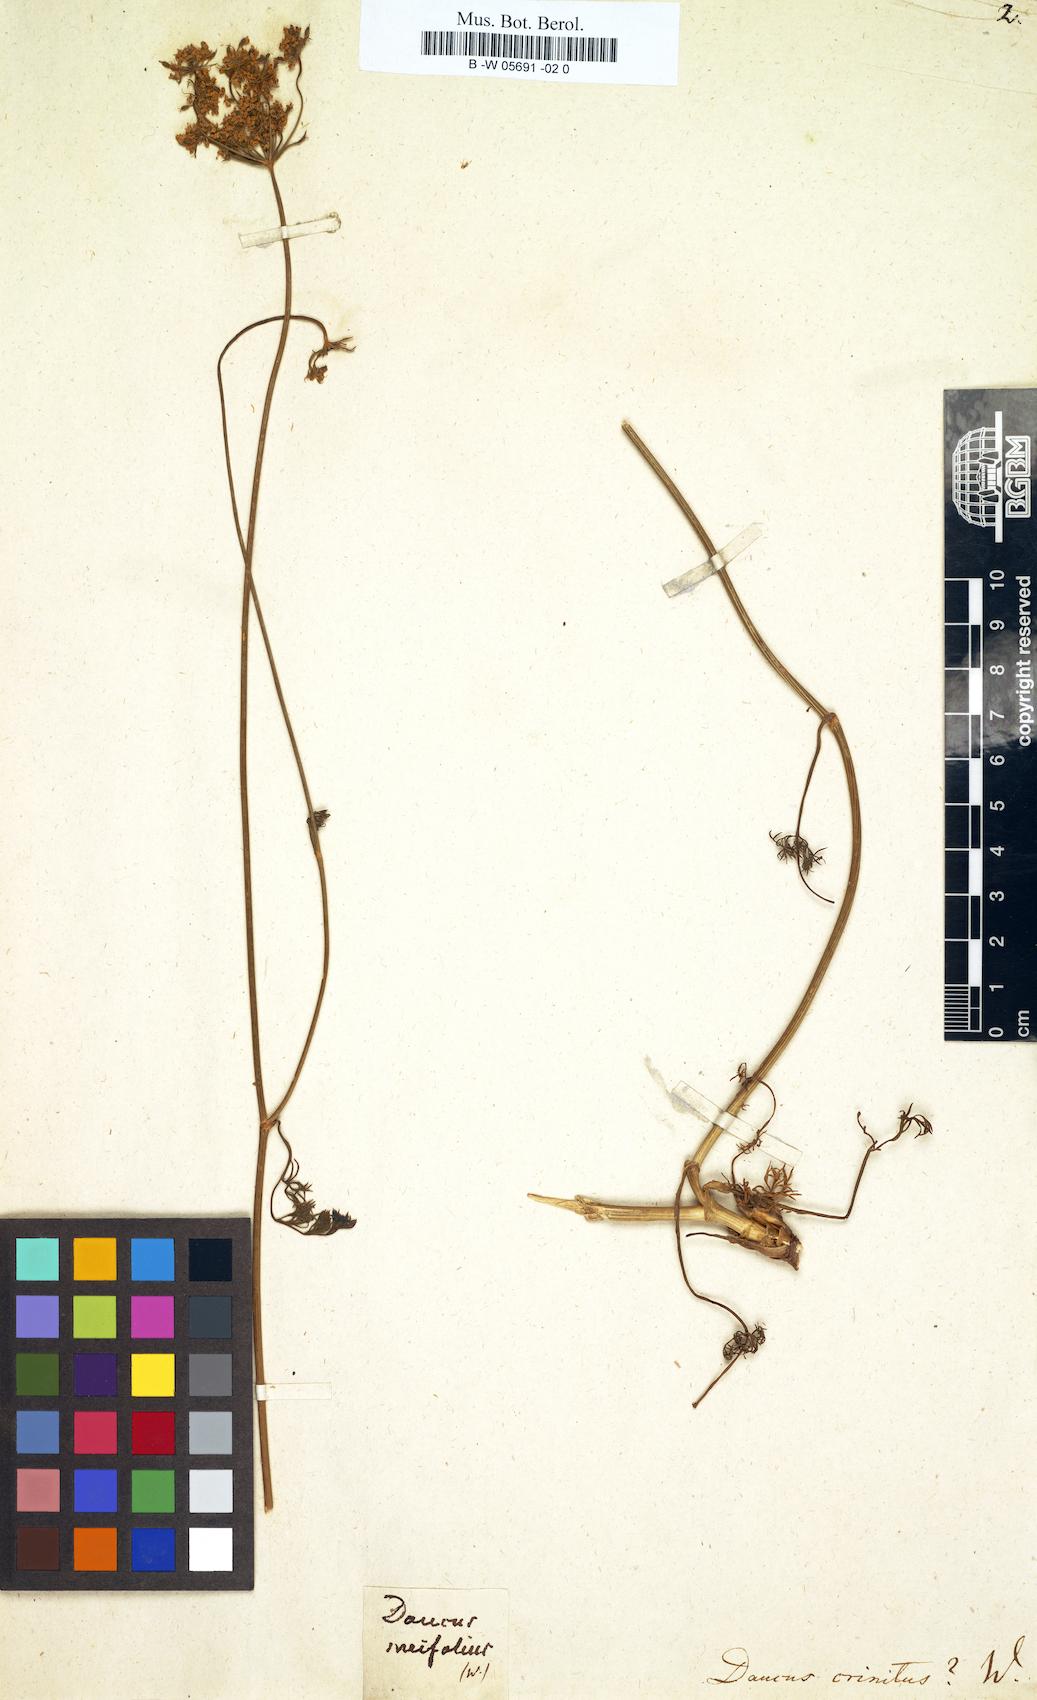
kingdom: Plantae
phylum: Tracheophyta
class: Magnoliopsida
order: Apiales
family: Apiaceae
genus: Daucus
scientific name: Daucus crinitus
